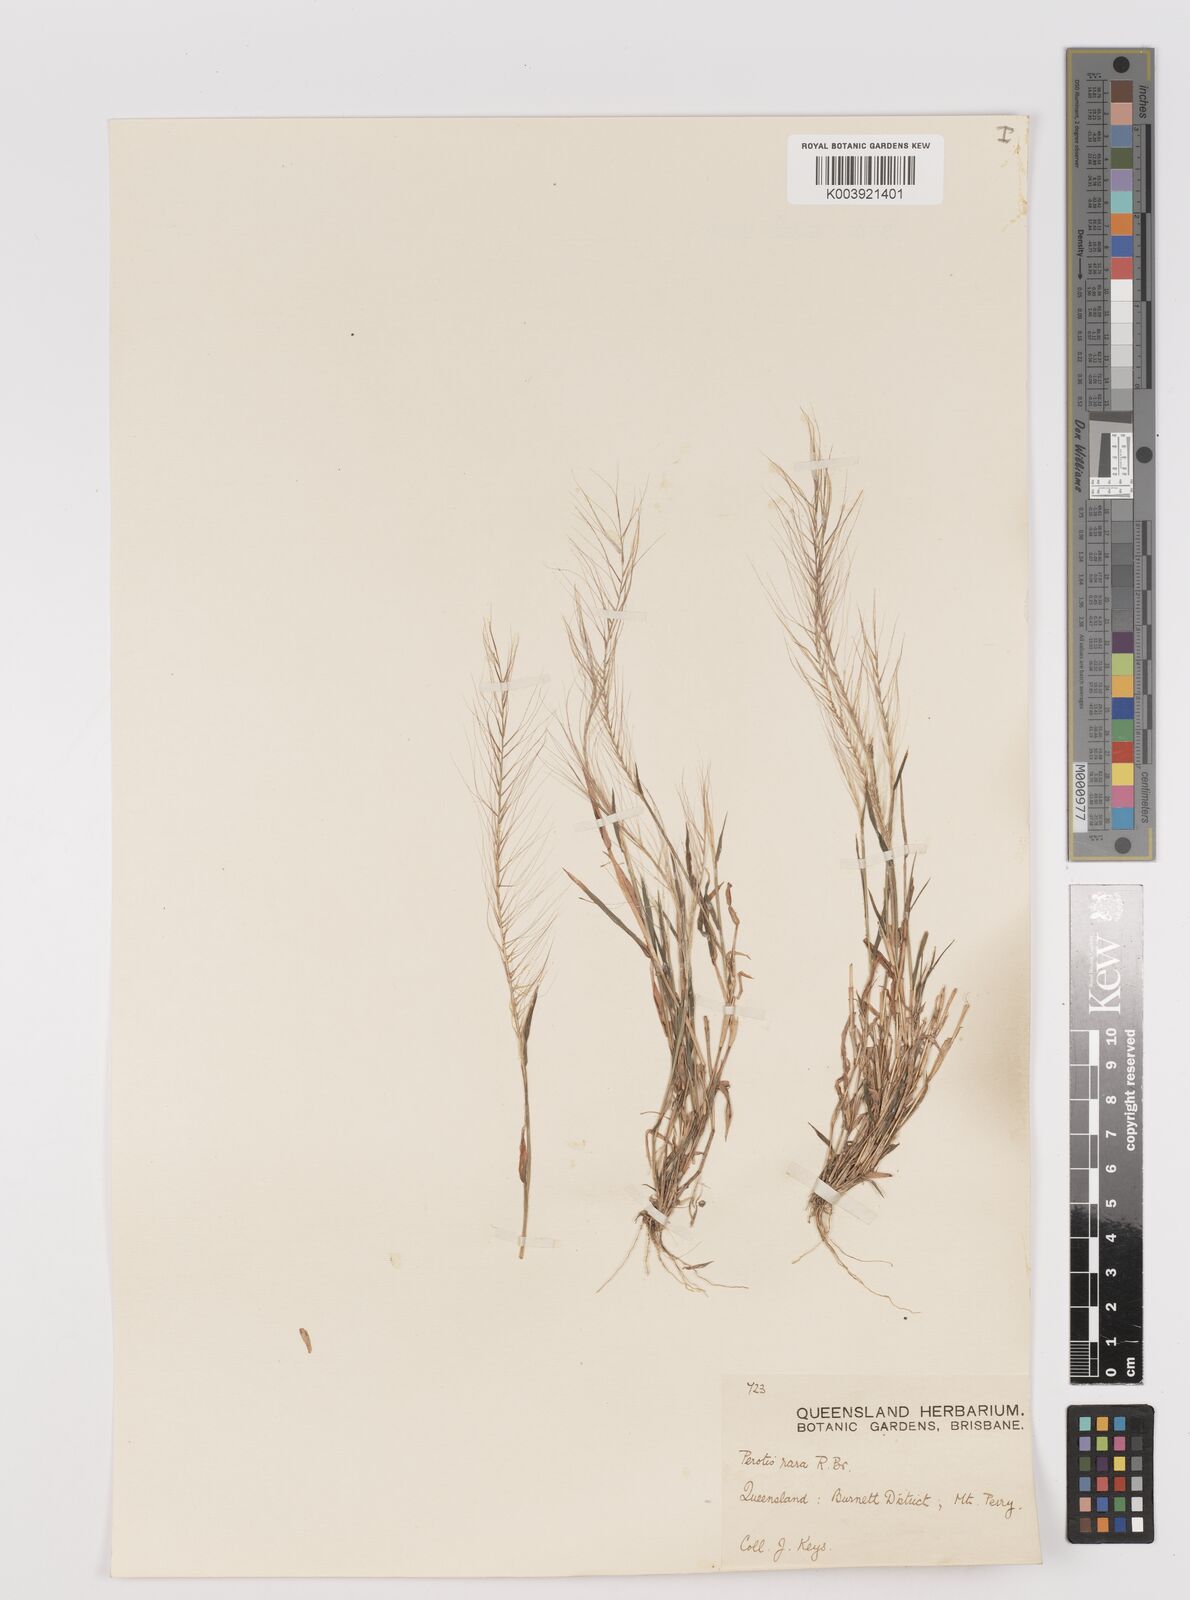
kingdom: Plantae
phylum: Tracheophyta
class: Liliopsida
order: Poales
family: Poaceae
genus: Perotis
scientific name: Perotis rara
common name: Comet grass
